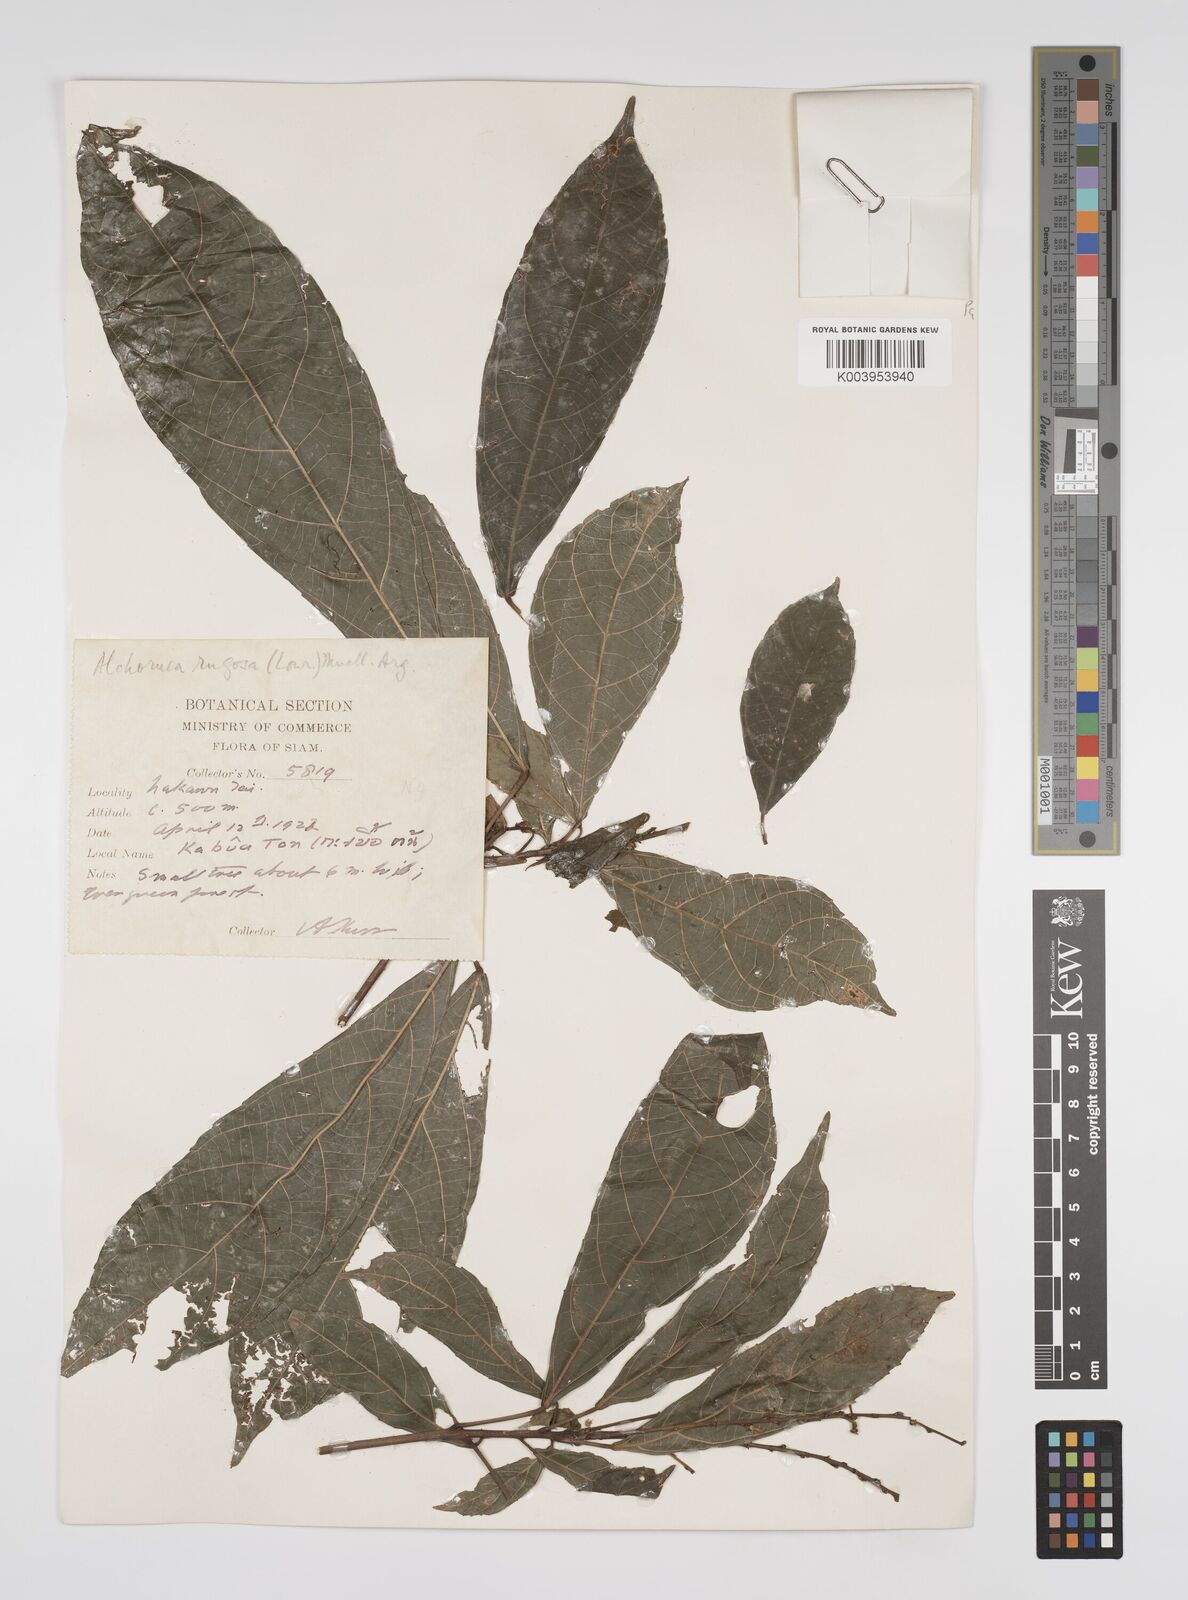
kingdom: Plantae
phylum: Tracheophyta
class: Magnoliopsida
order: Malpighiales
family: Euphorbiaceae
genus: Alchornea
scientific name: Alchornea rugosa
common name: Alchorntree
